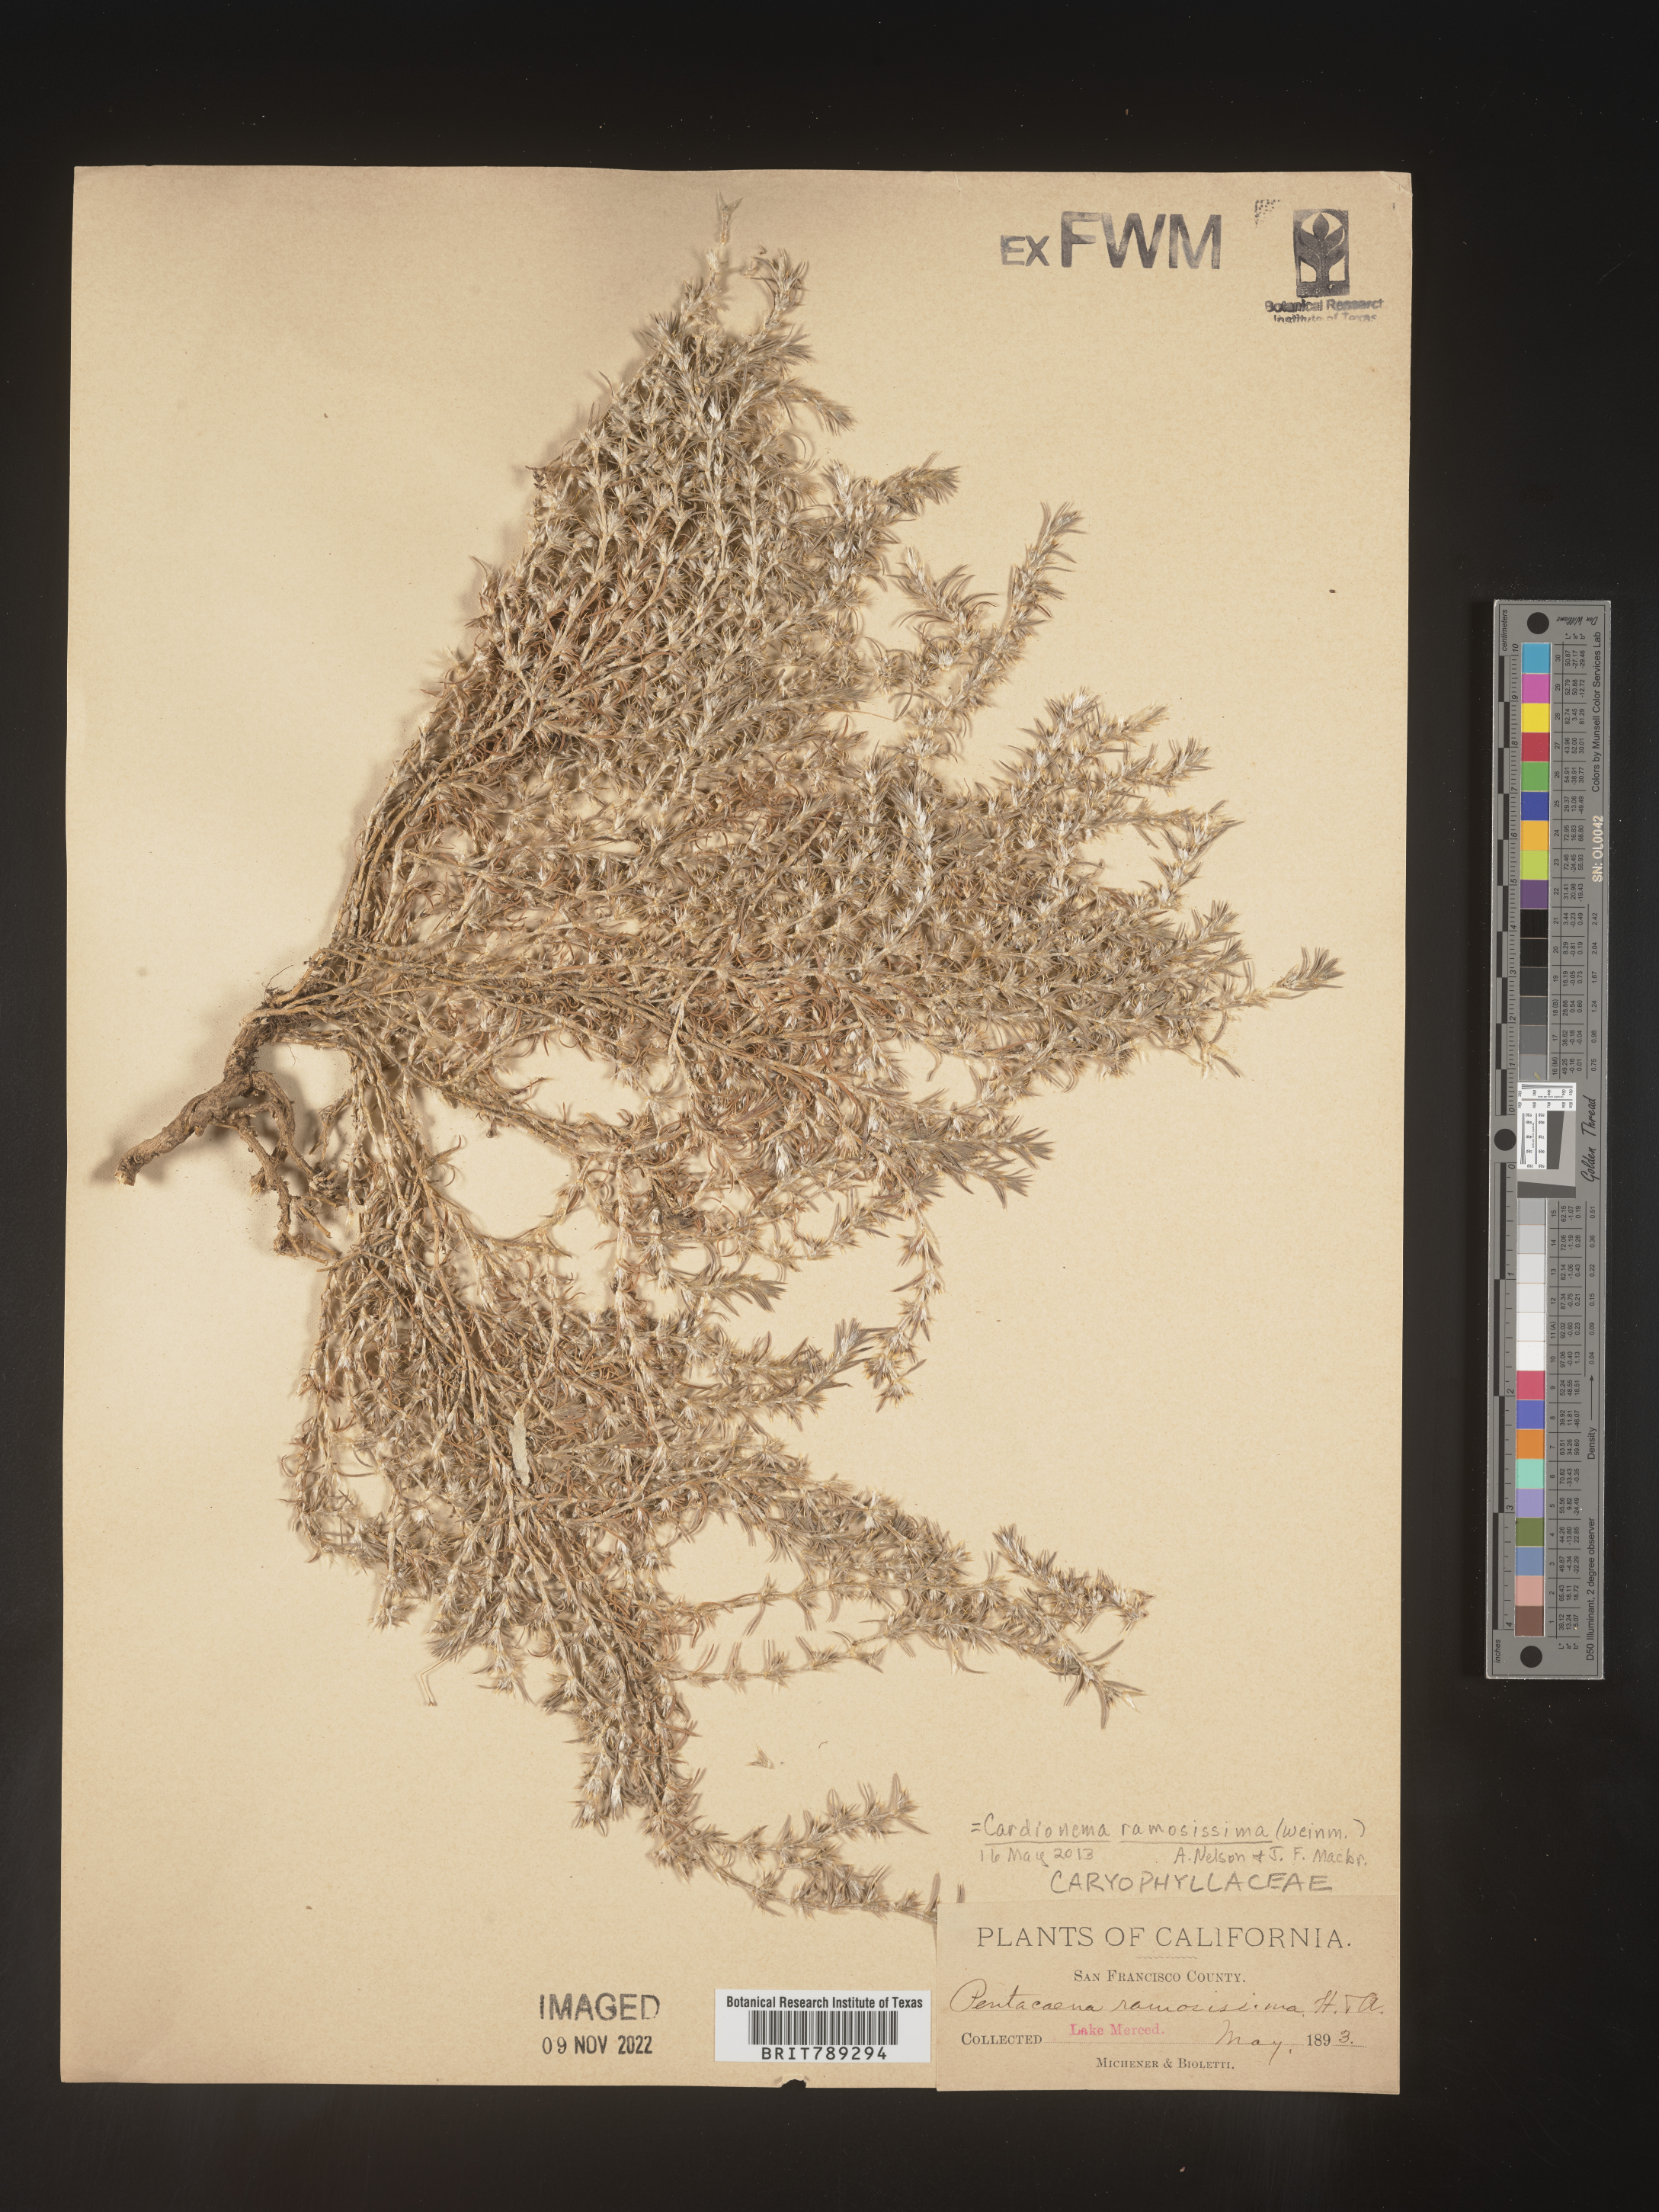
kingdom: Plantae
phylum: Tracheophyta
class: Magnoliopsida
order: Caryophyllales
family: Caryophyllaceae
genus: Cardionema
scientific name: Cardionema
